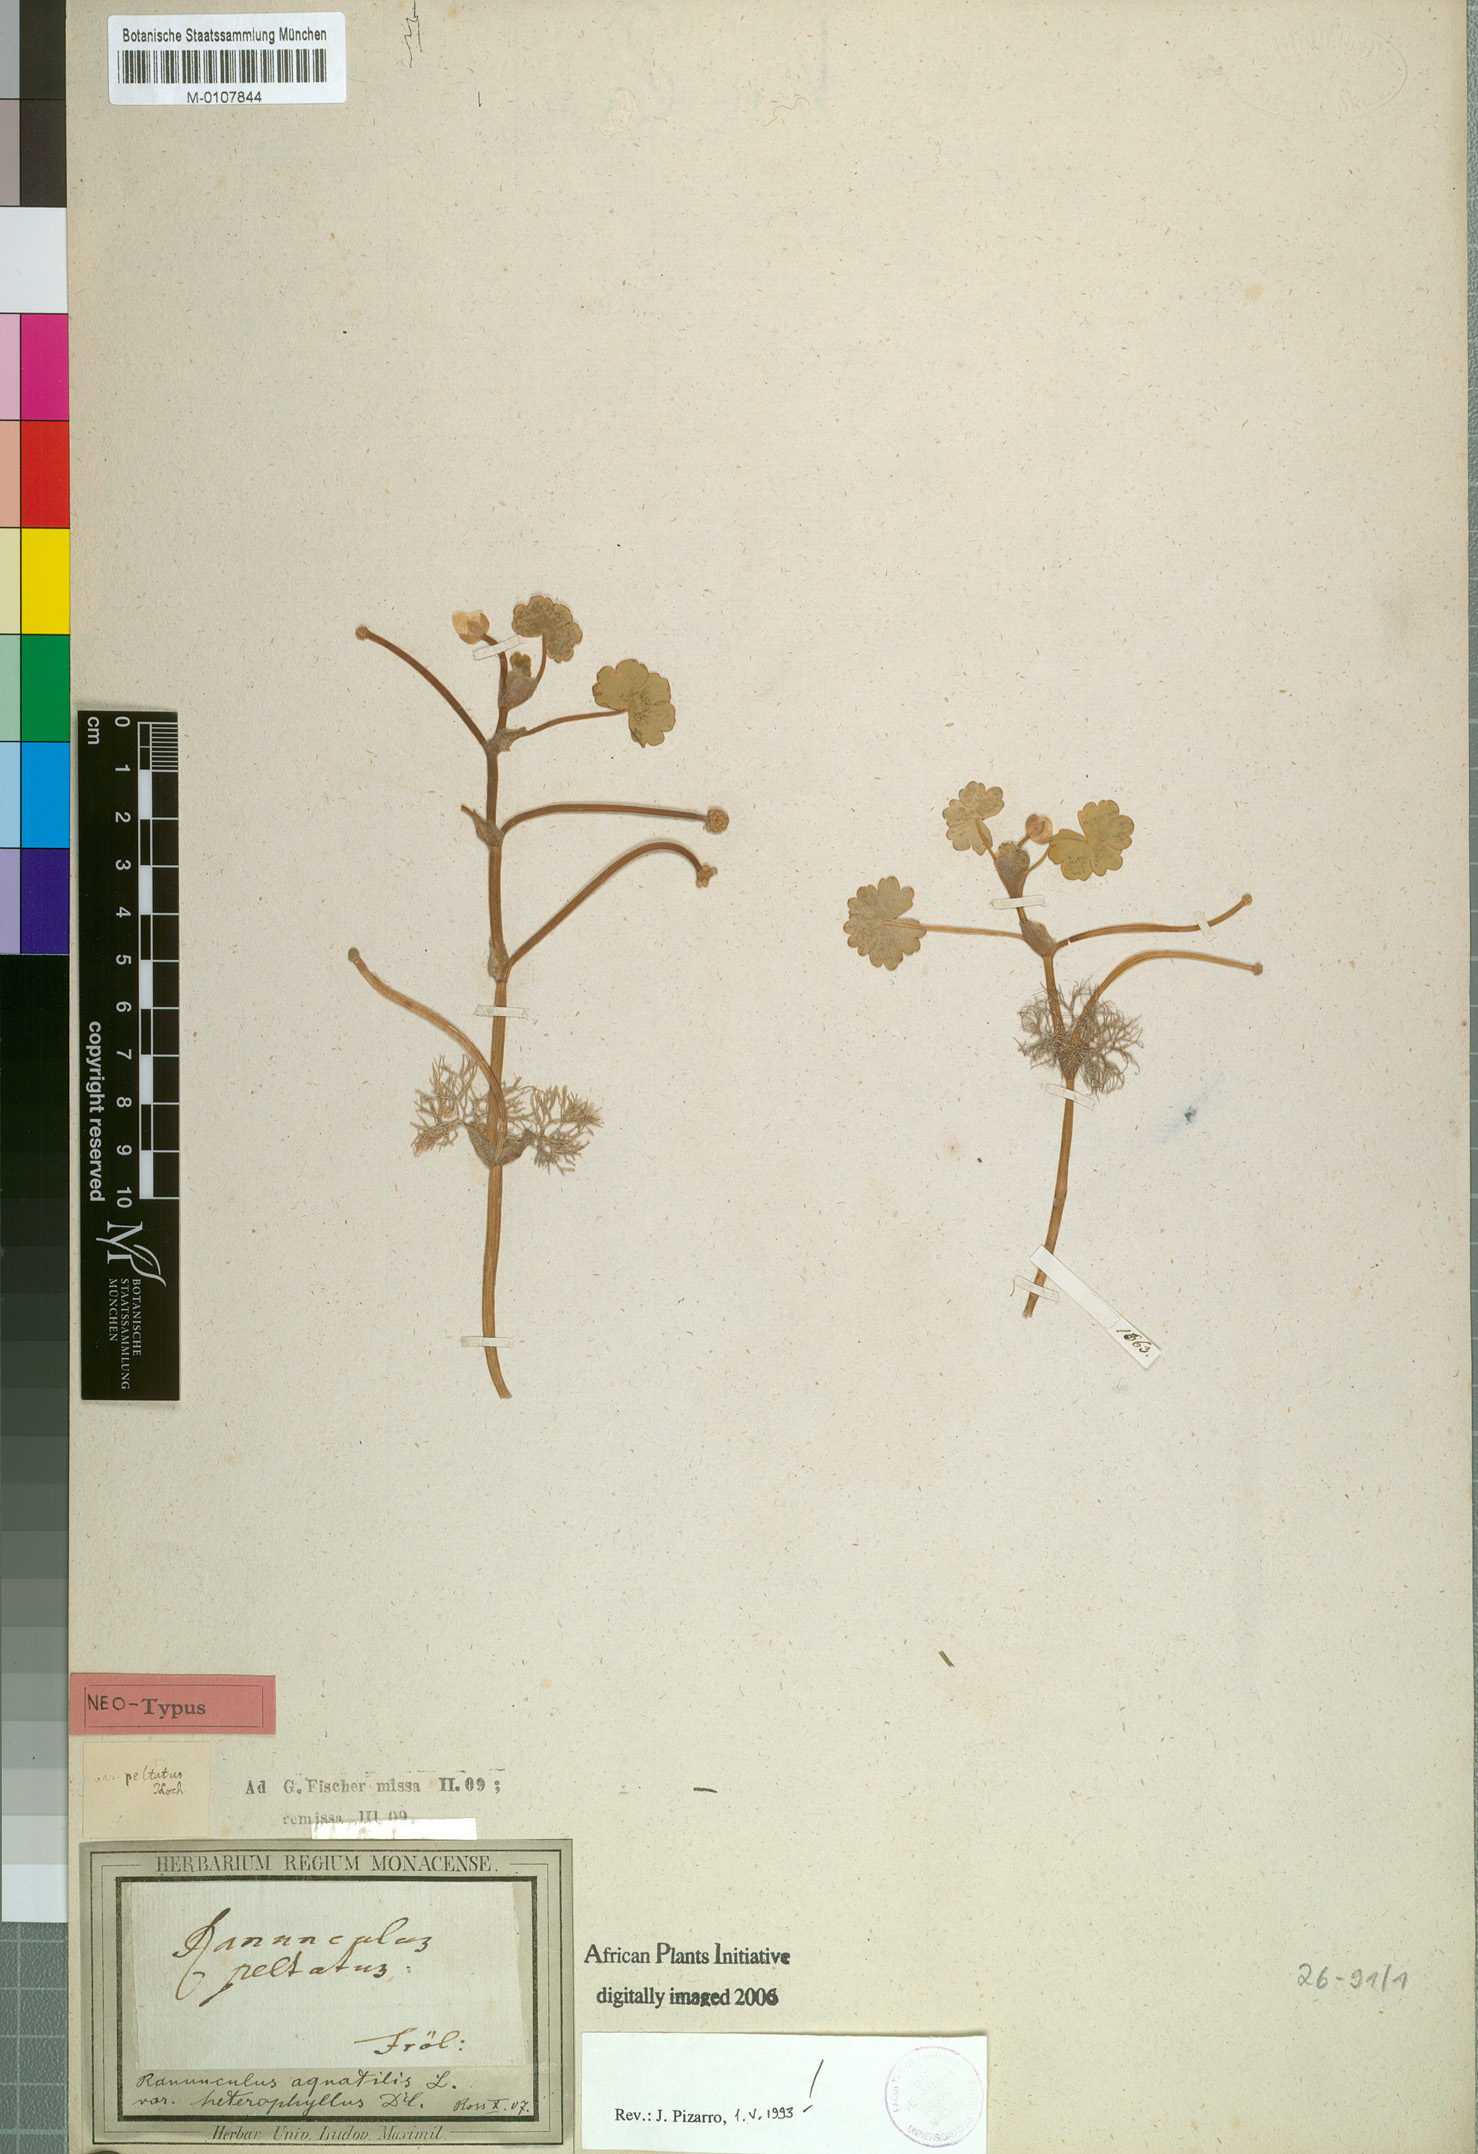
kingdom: Plantae
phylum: Tracheophyta
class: Magnoliopsida
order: Ranunculales
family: Ranunculaceae
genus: Ranunculus
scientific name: Ranunculus peltatus
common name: Pond water-crowfoot
